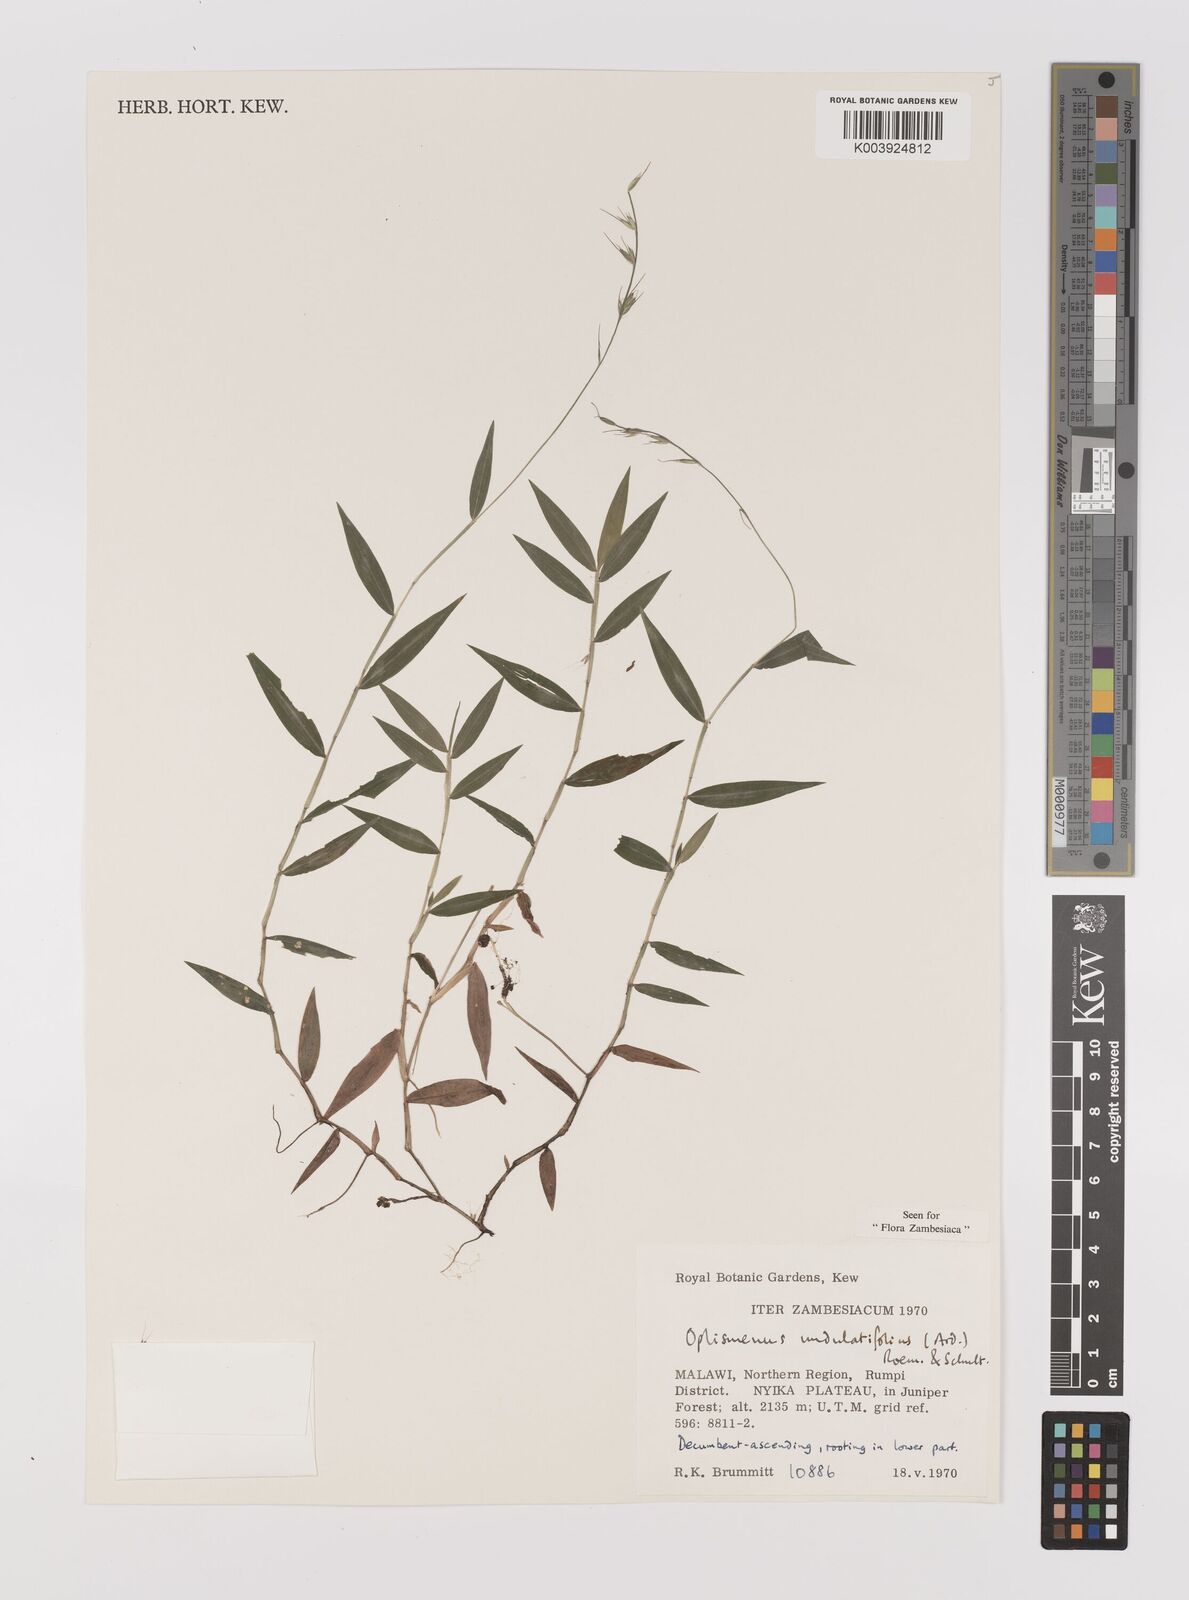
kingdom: Plantae
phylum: Tracheophyta
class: Liliopsida
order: Poales
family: Poaceae
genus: Oplismenus
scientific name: Oplismenus undulatifolius
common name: Wavyleaf basketgrass
